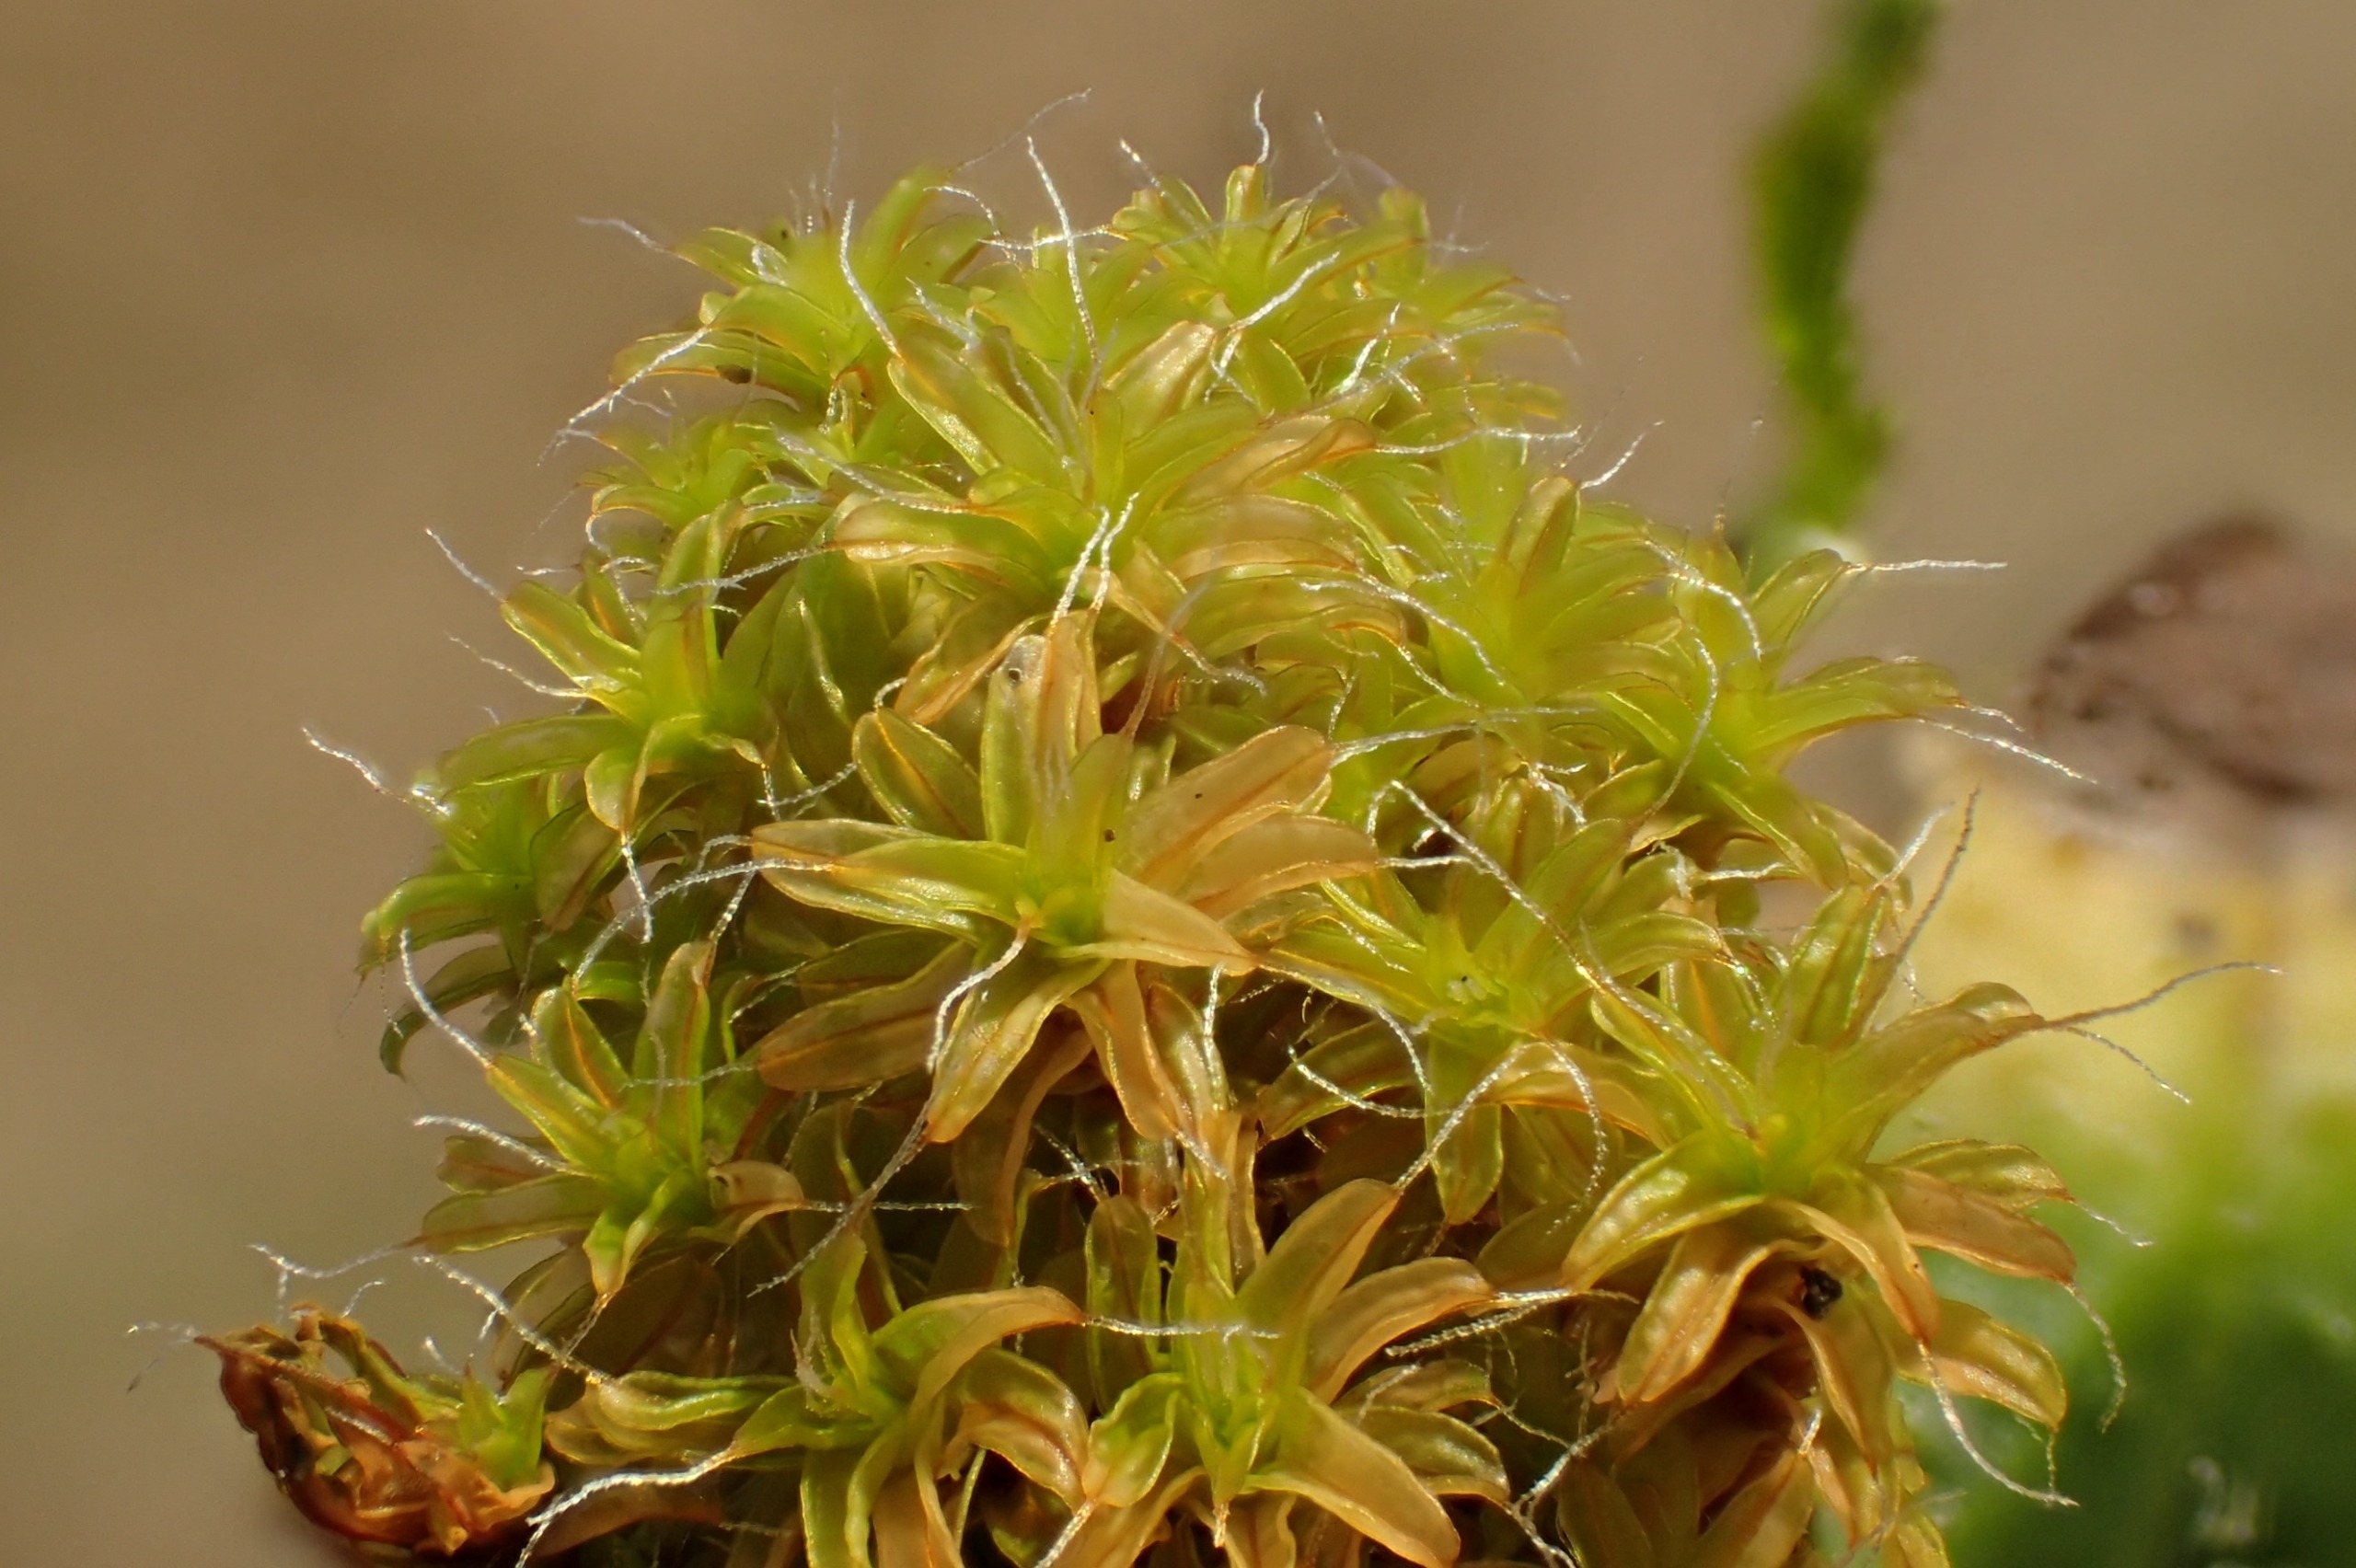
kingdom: Plantae
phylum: Bryophyta
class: Bryopsida
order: Pottiales
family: Pottiaceae
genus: Syntrichia
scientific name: Syntrichia ruralis
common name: Tag-hårstjerne
